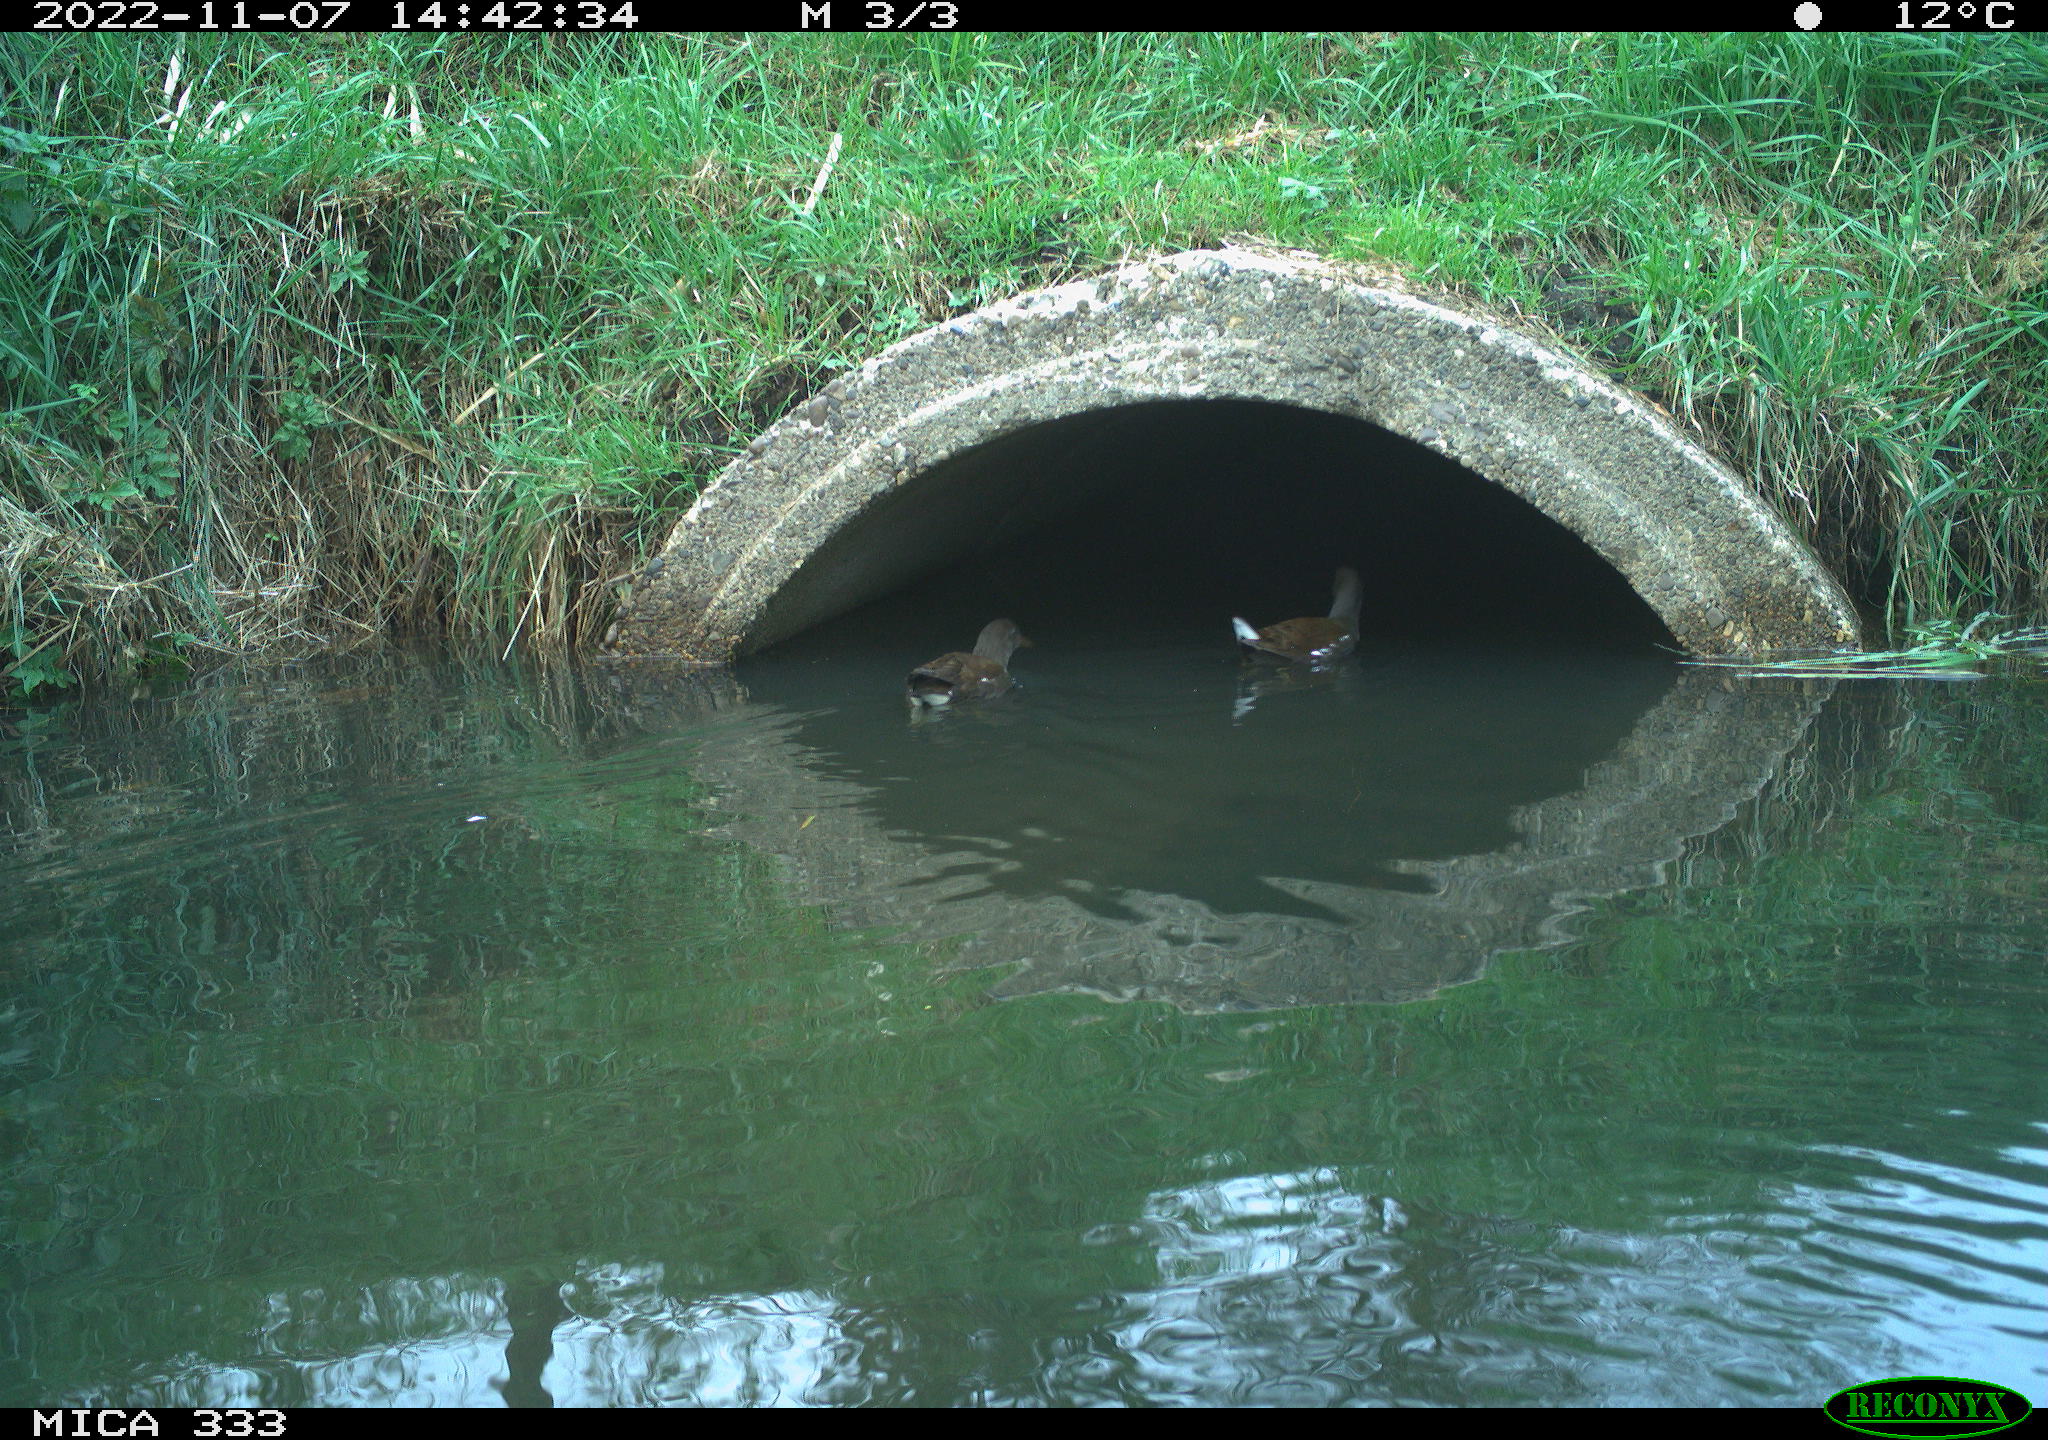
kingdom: Animalia
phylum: Chordata
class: Aves
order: Gruiformes
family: Rallidae
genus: Gallinula
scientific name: Gallinula chloropus
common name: Common moorhen
